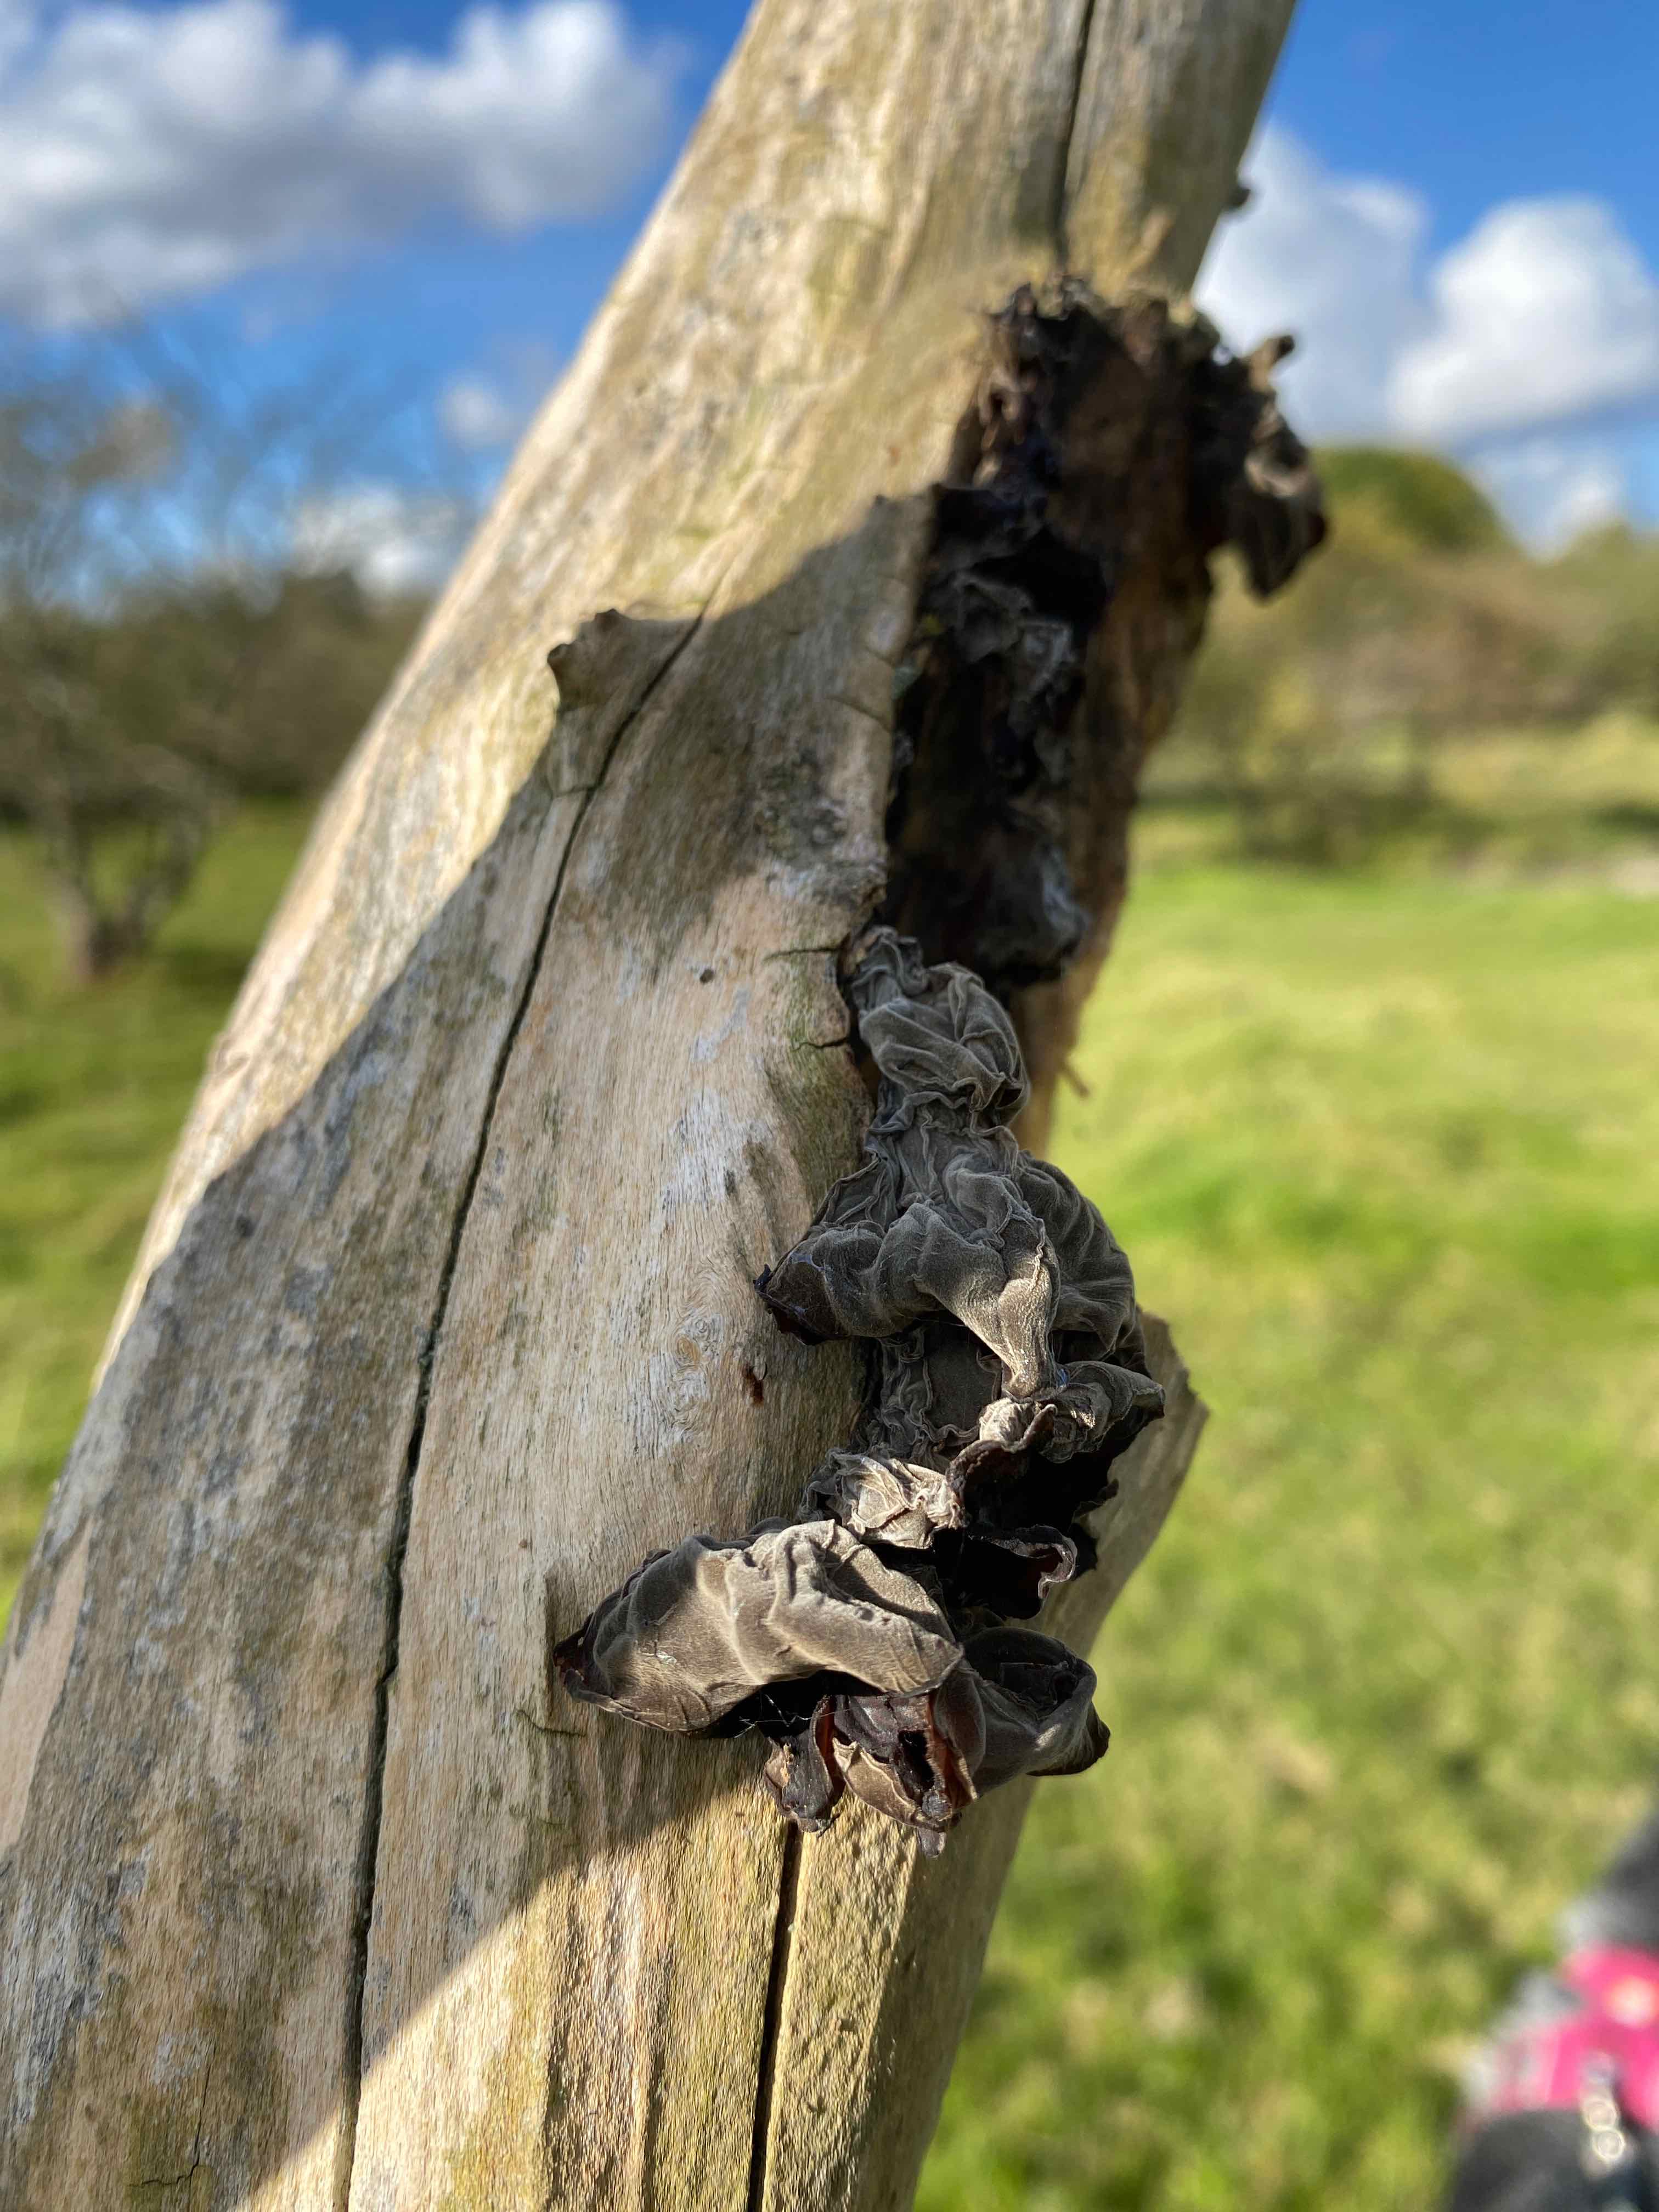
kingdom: Fungi
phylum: Basidiomycota
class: Agaricomycetes
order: Auriculariales
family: Auriculariaceae
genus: Auricularia
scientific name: Auricularia auricula-judae
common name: almindelig judasøre
